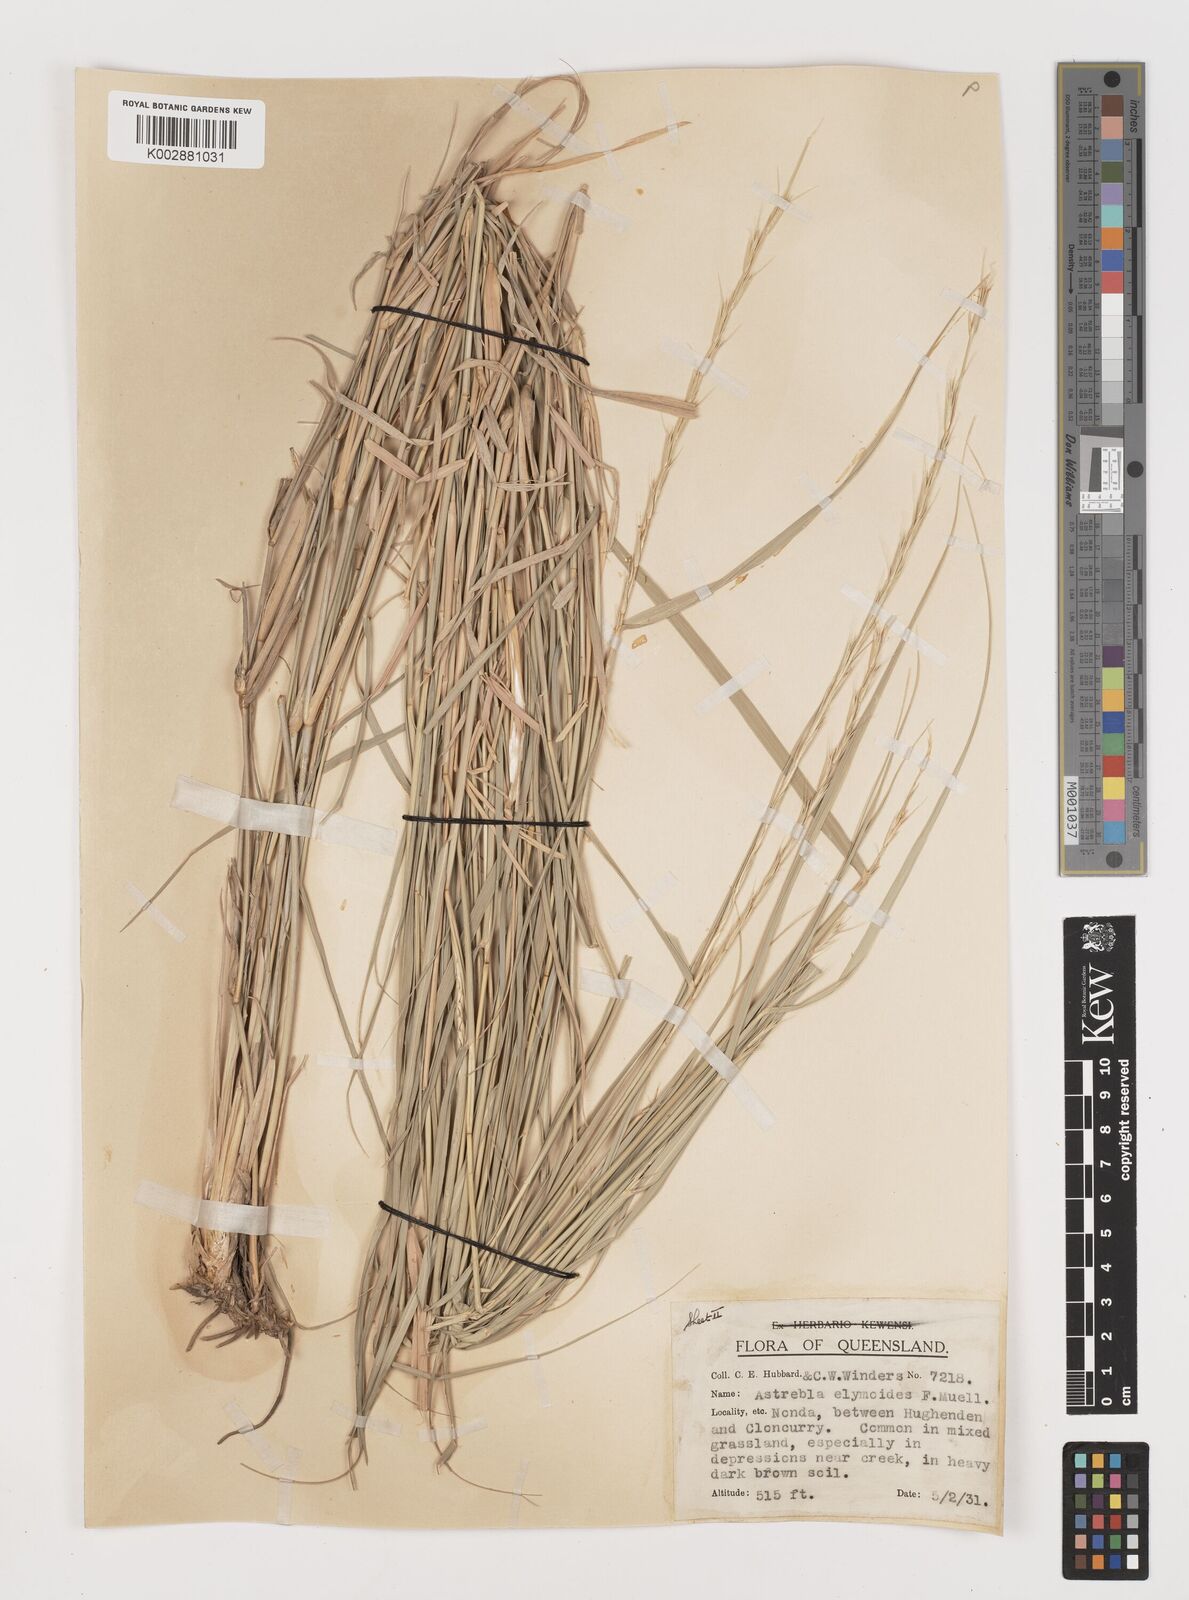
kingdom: Plantae
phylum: Tracheophyta
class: Liliopsida
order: Poales
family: Poaceae
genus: Astrebla
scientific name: Astrebla elymoides
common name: Hoop mitchell grass
